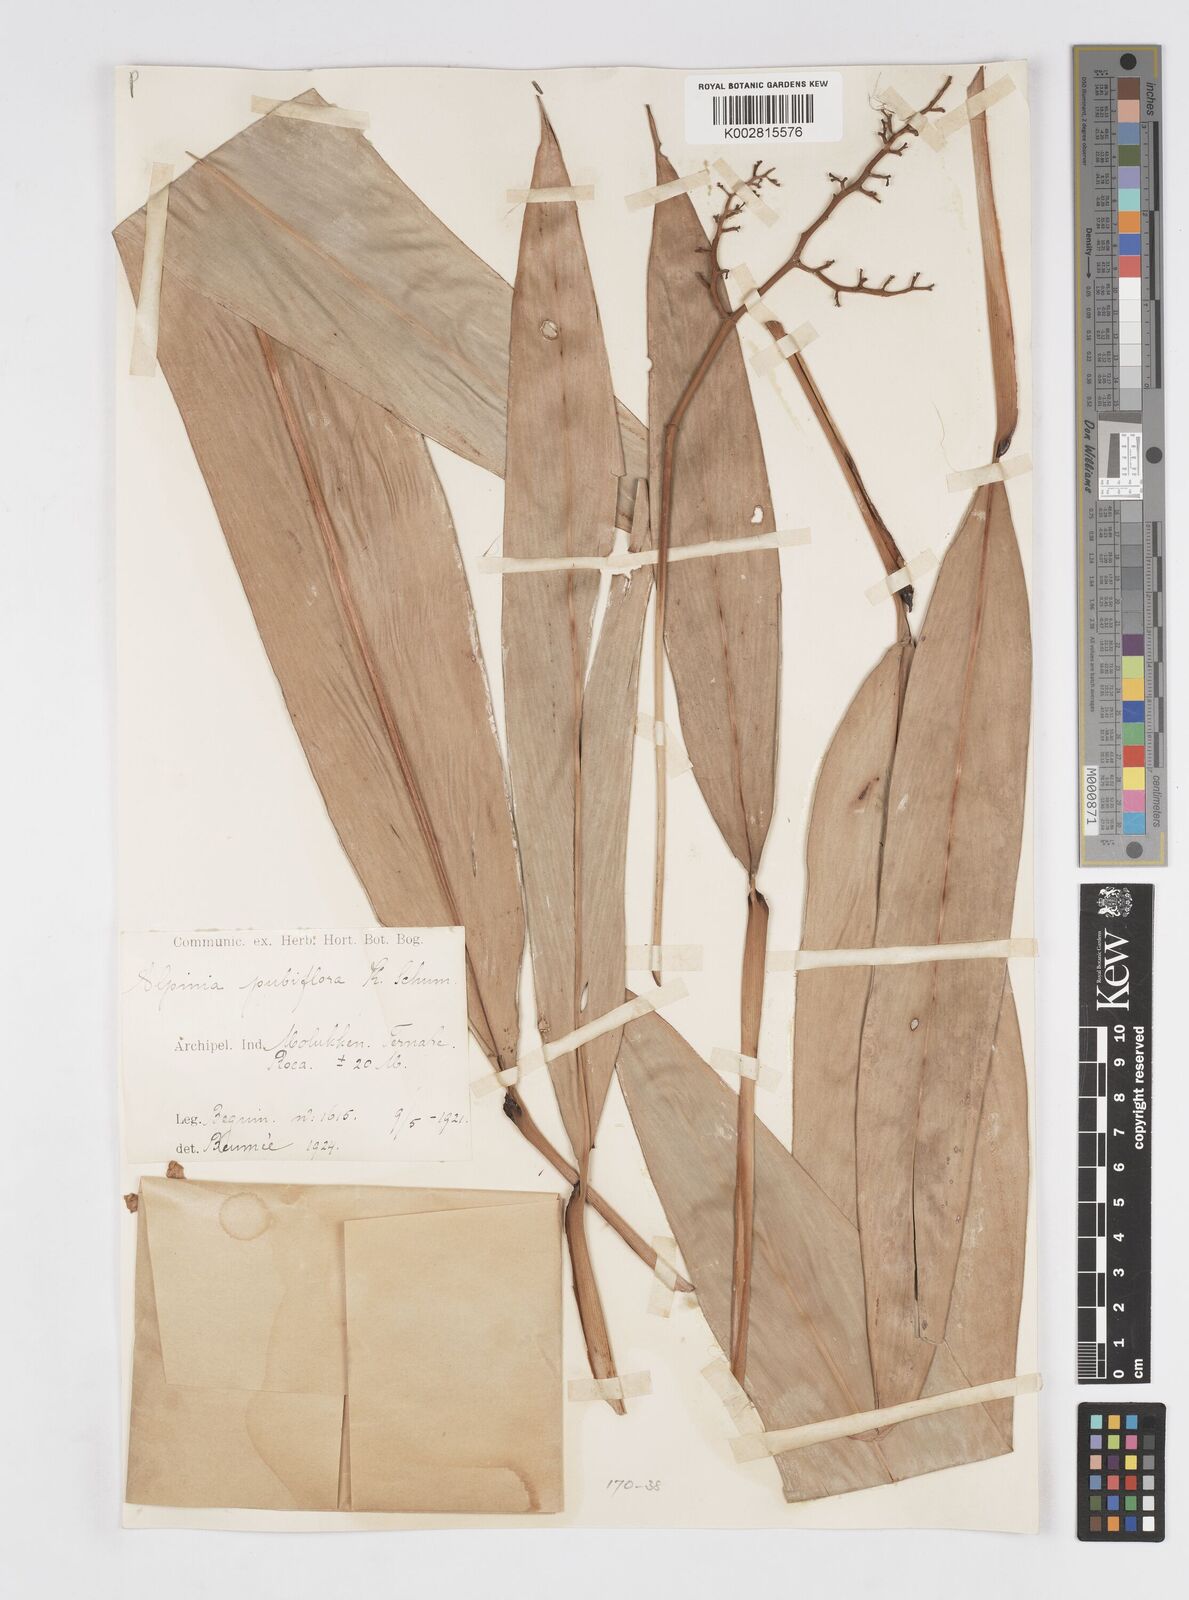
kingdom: Plantae
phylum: Tracheophyta
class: Liliopsida
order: Zingiberales
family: Zingiberaceae
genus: Alpinia
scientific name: Alpinia pubiflora
